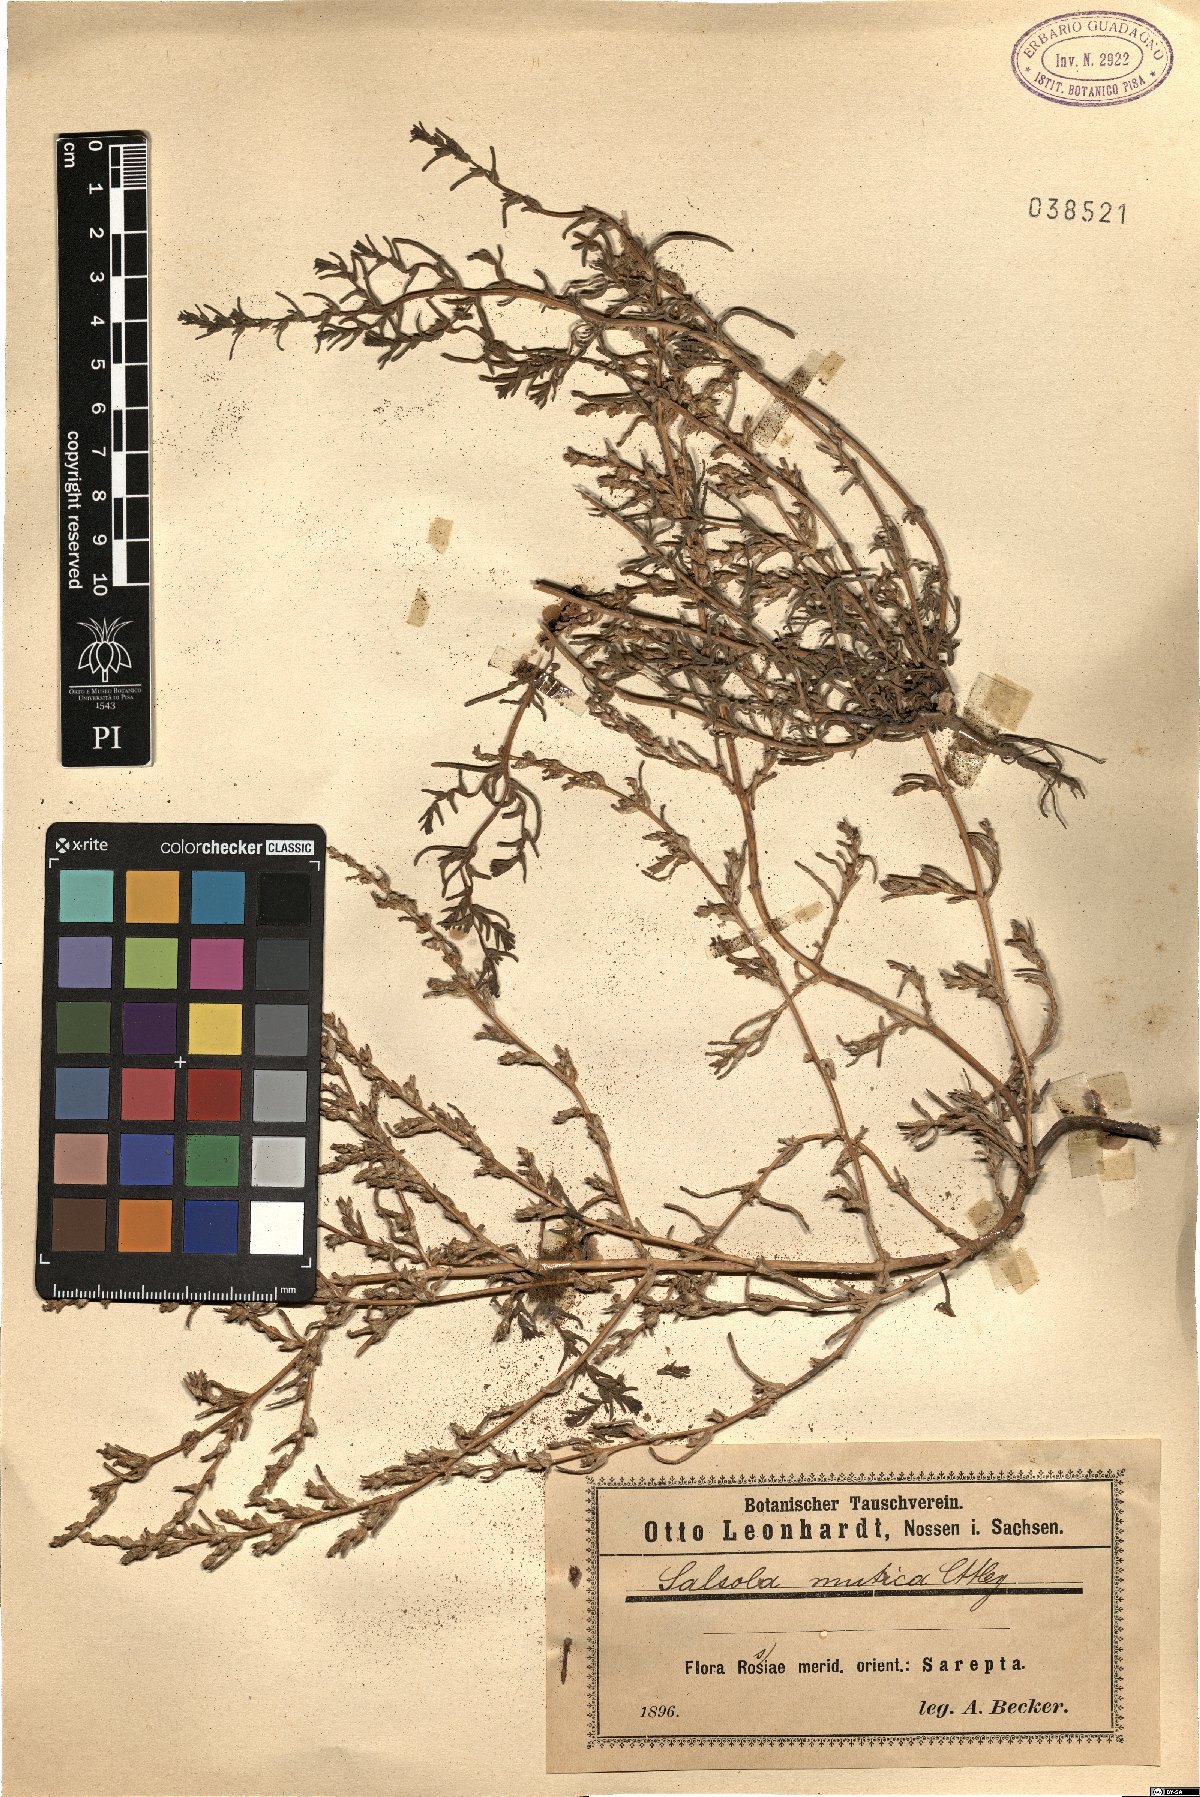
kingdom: Plantae
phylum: Tracheophyta
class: Magnoliopsida
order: Caryophyllales
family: Amaranthaceae
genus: Soda
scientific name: Soda acutifolia
